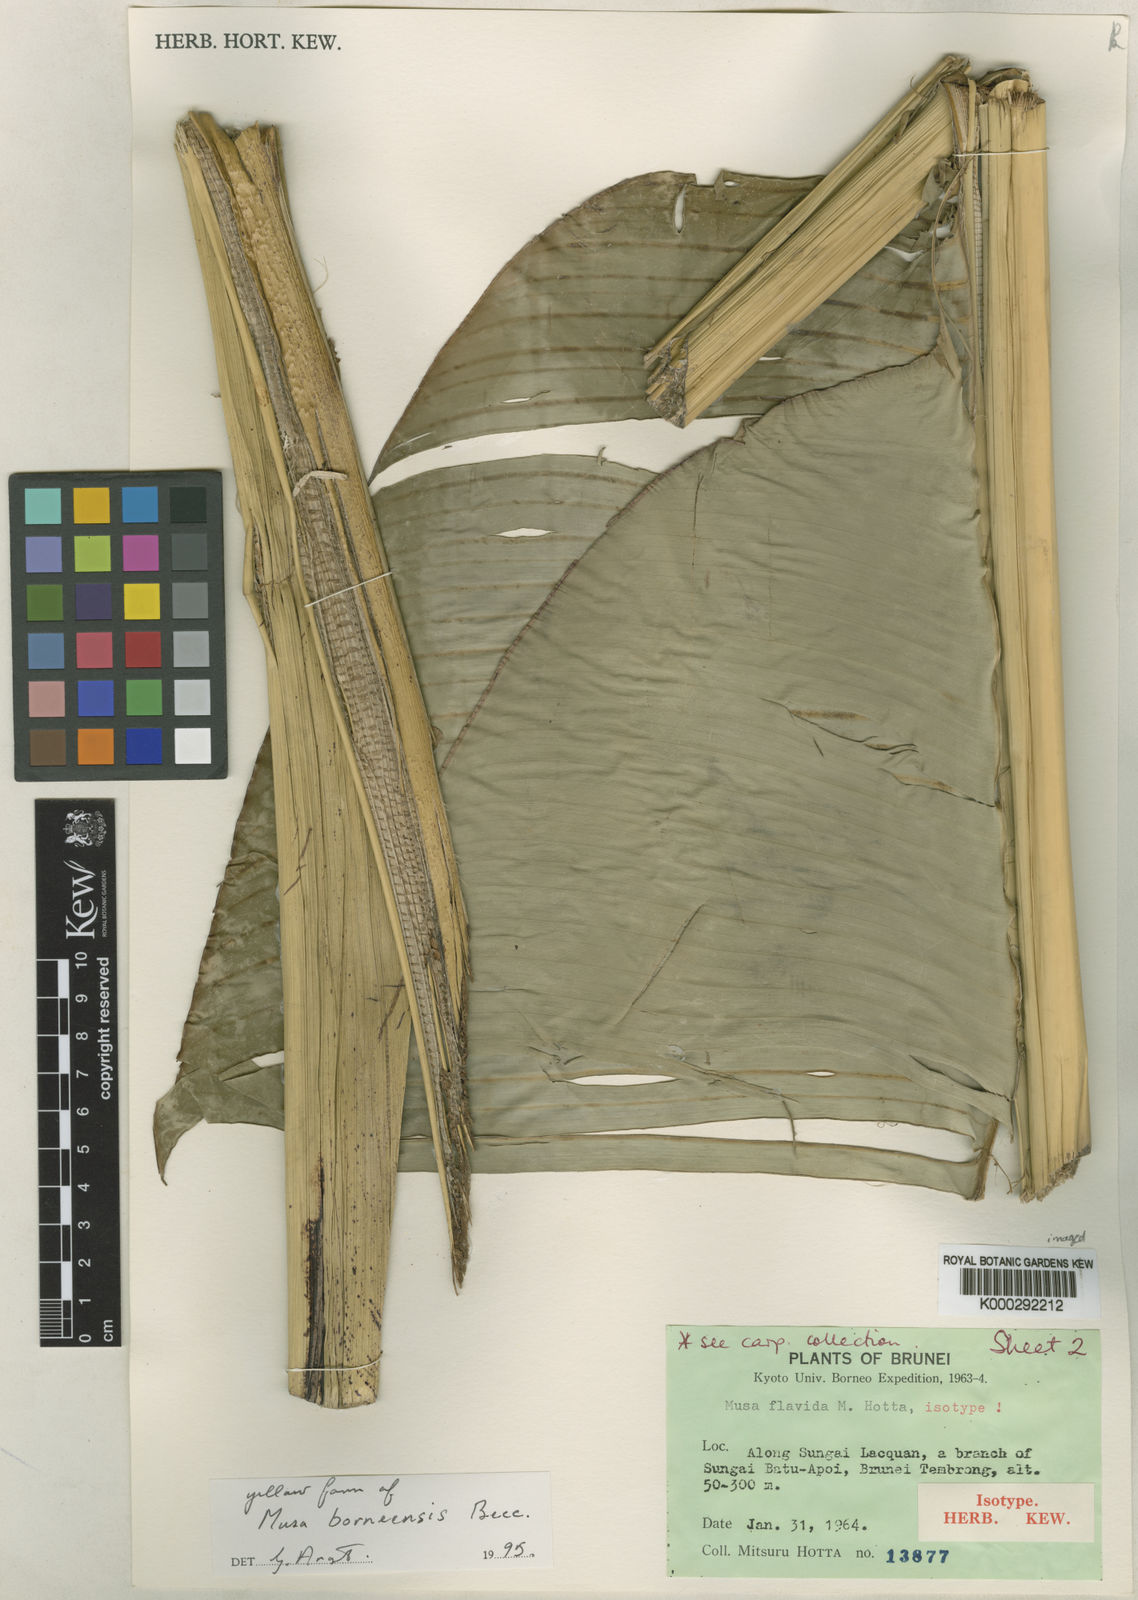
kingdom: Plantae
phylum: Tracheophyta
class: Liliopsida
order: Zingiberales
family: Musaceae
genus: Musa
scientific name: Musa borneensis
